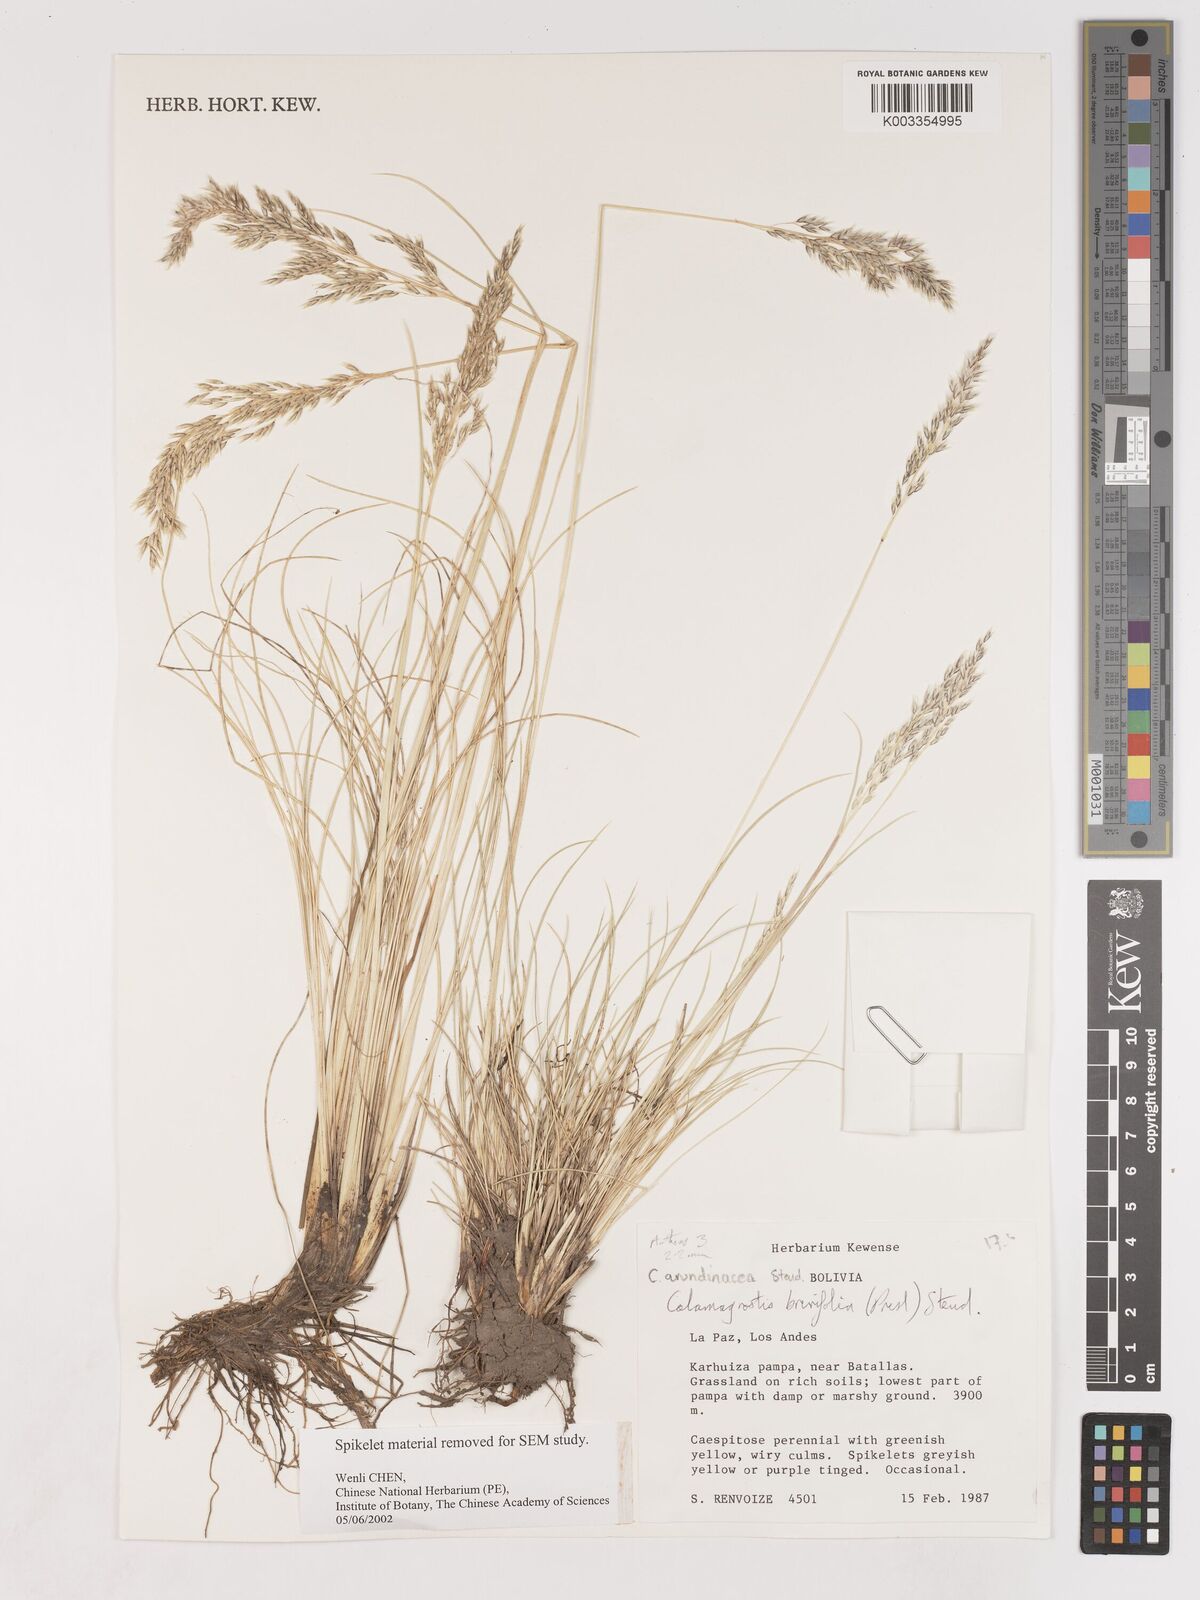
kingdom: Plantae
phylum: Tracheophyta
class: Liliopsida
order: Poales
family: Poaceae
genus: Cinnagrostis
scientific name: Cinnagrostis brevifolia
